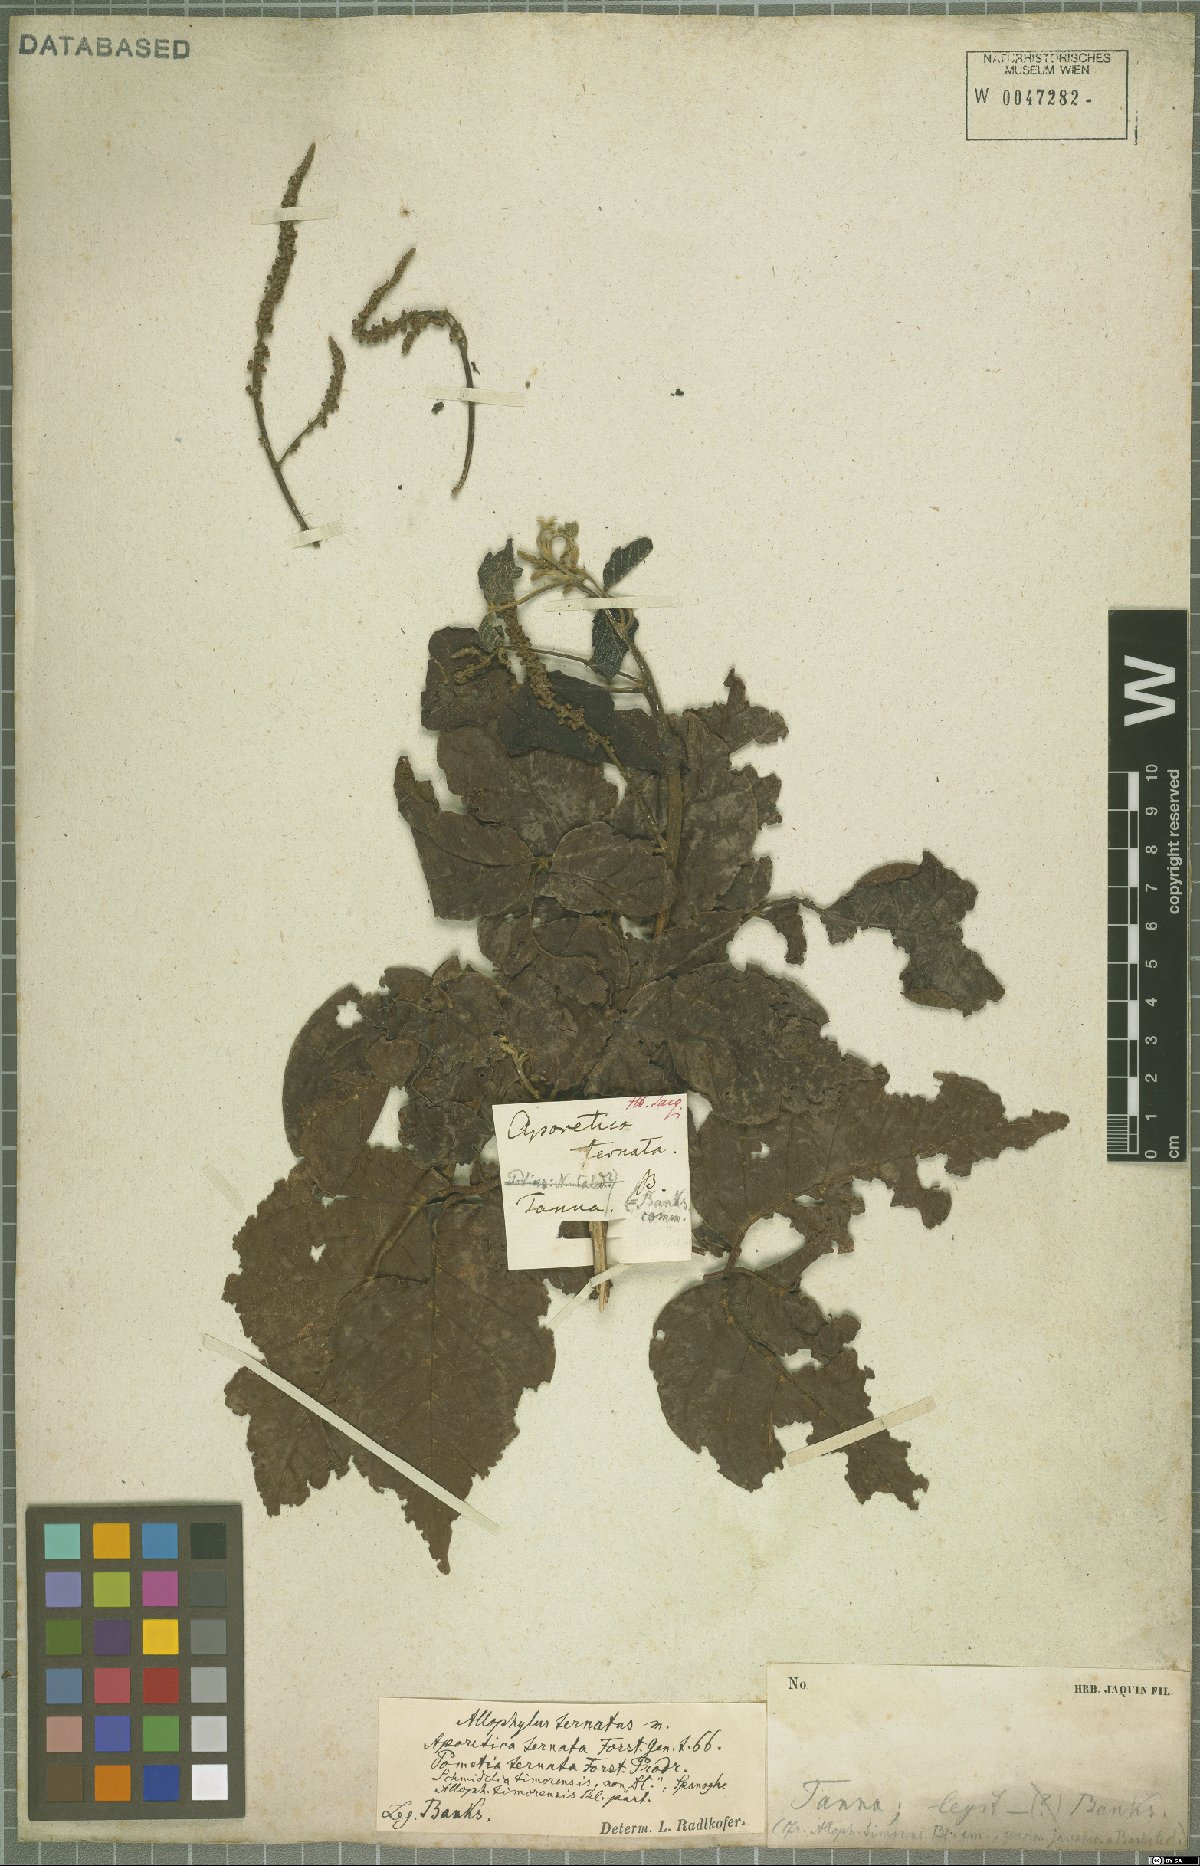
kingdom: Plantae
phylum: Tracheophyta
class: Magnoliopsida
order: Sapindales
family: Sapindaceae
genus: Allophylus
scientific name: Allophylus amboinensis
